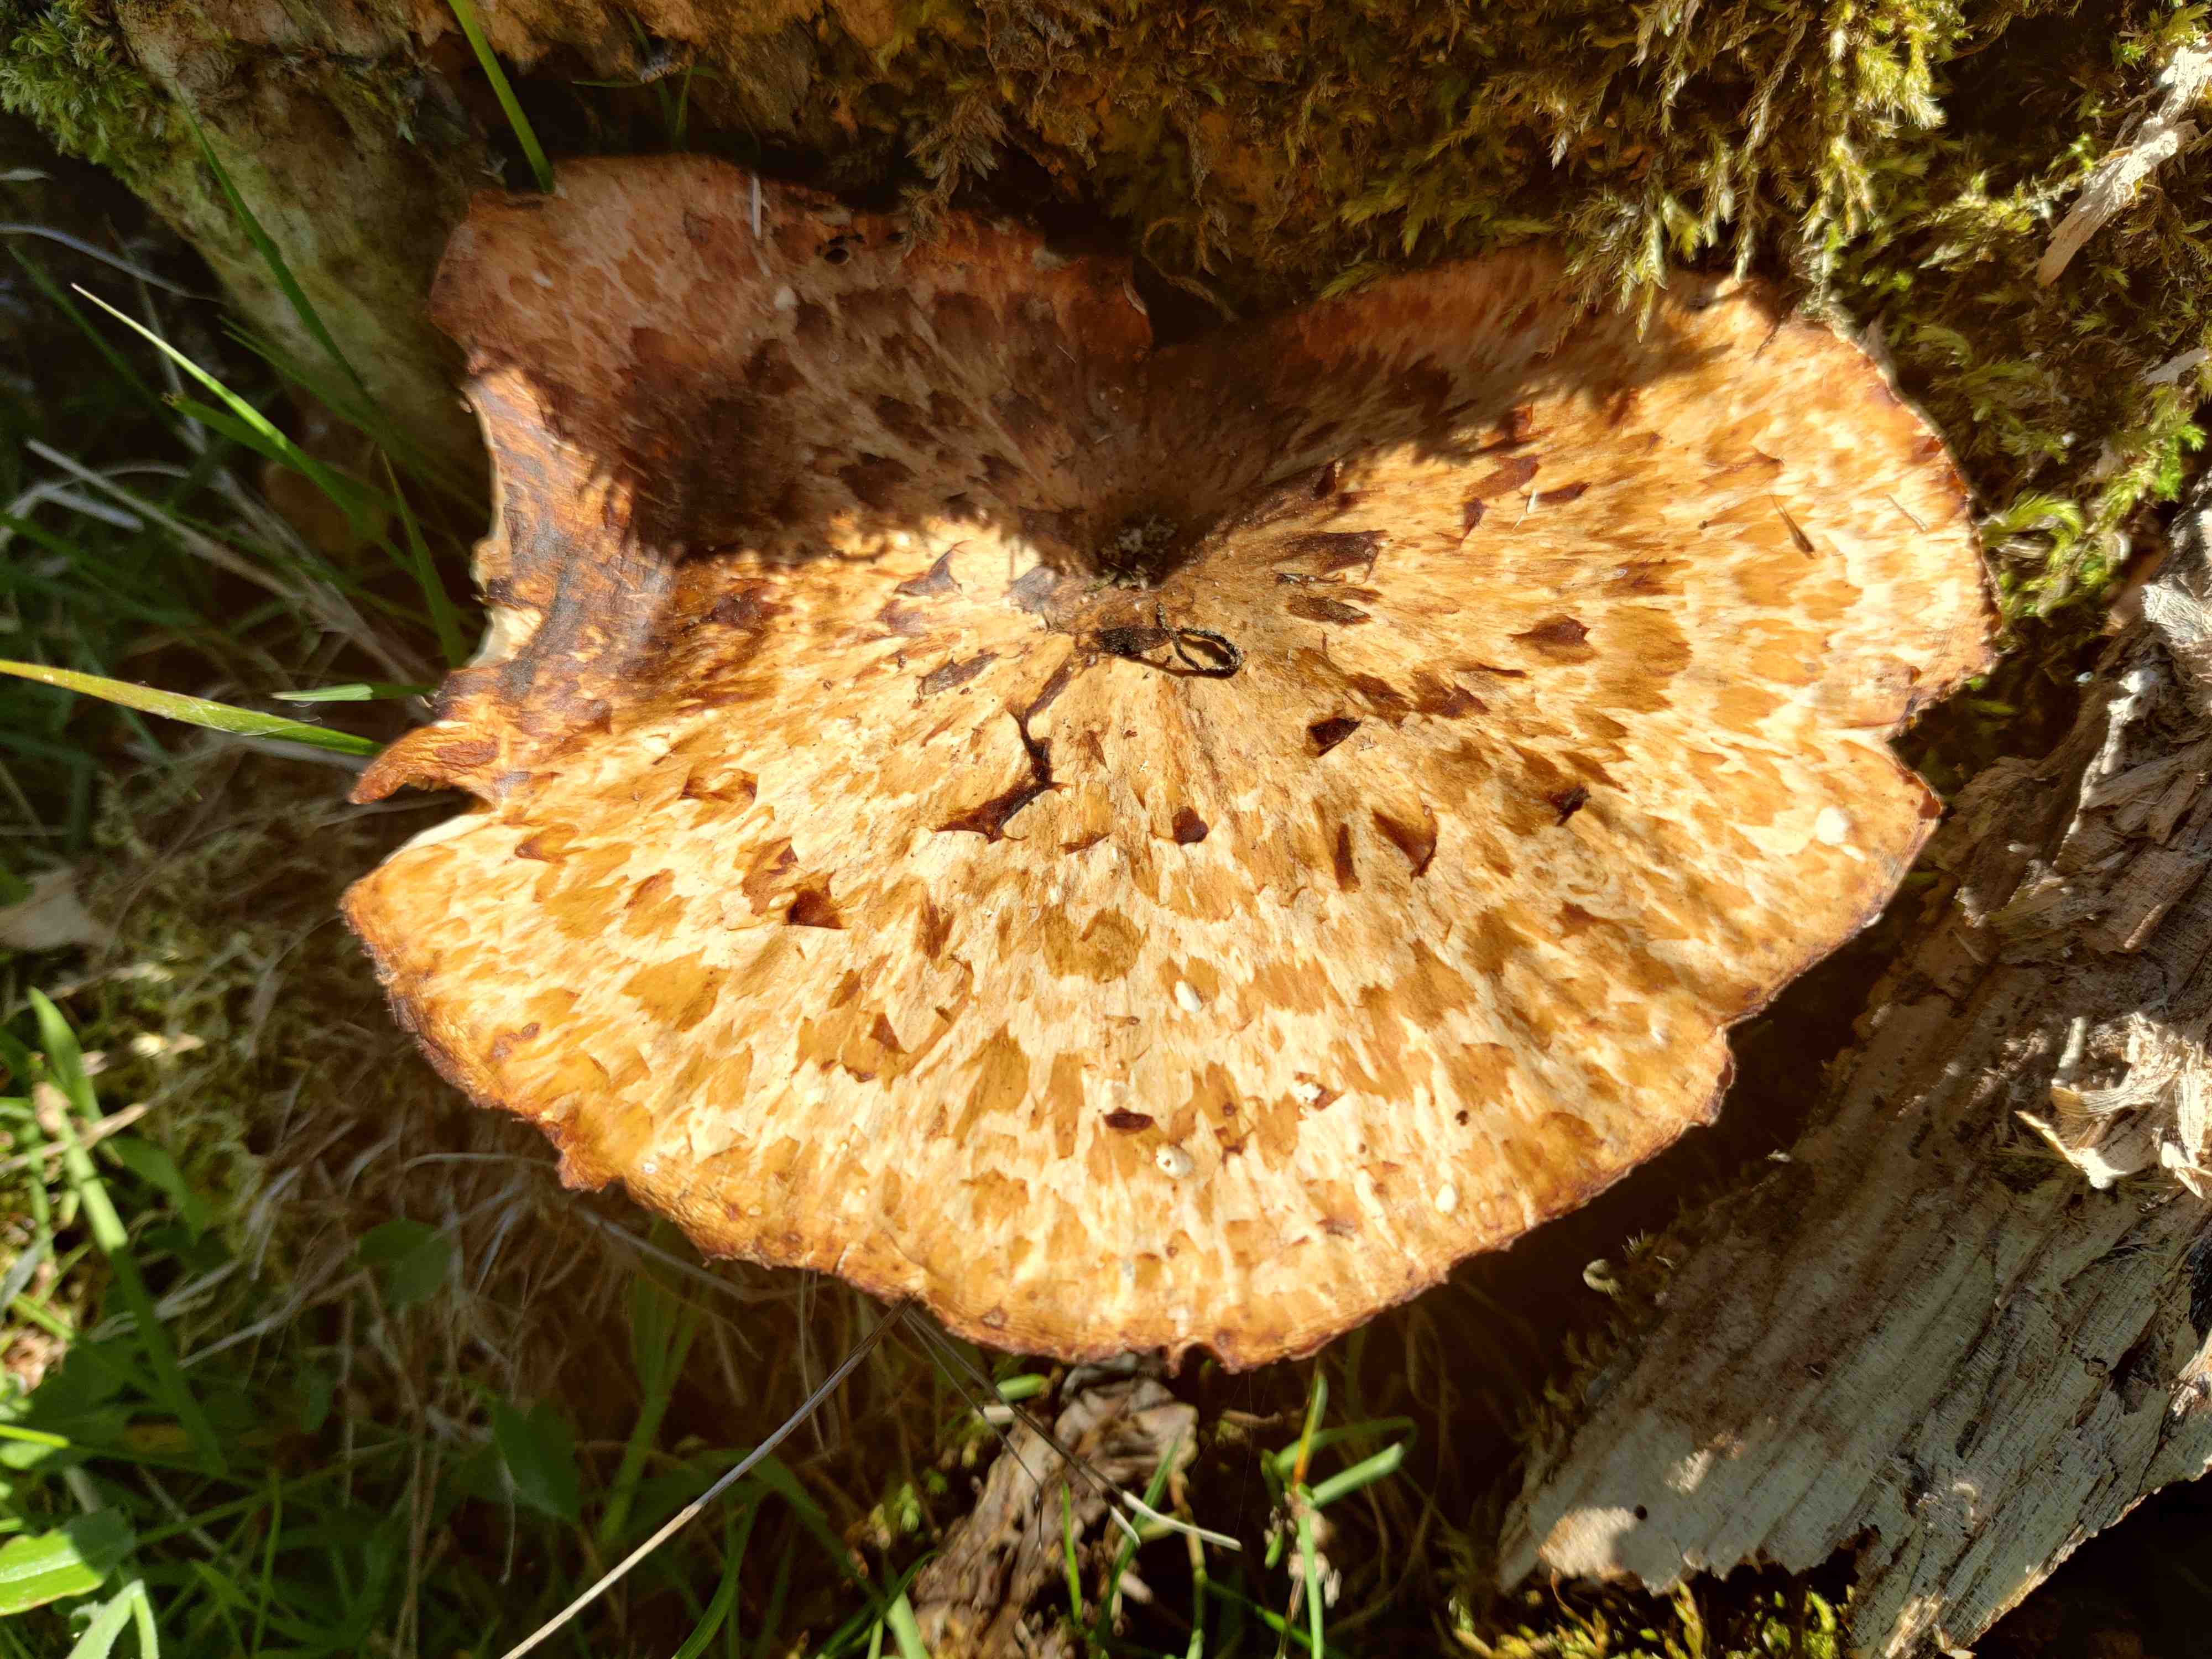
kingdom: Fungi
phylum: Basidiomycota
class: Agaricomycetes
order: Polyporales
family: Polyporaceae
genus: Cerioporus
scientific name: Cerioporus squamosus
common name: skællet stilkporesvamp
